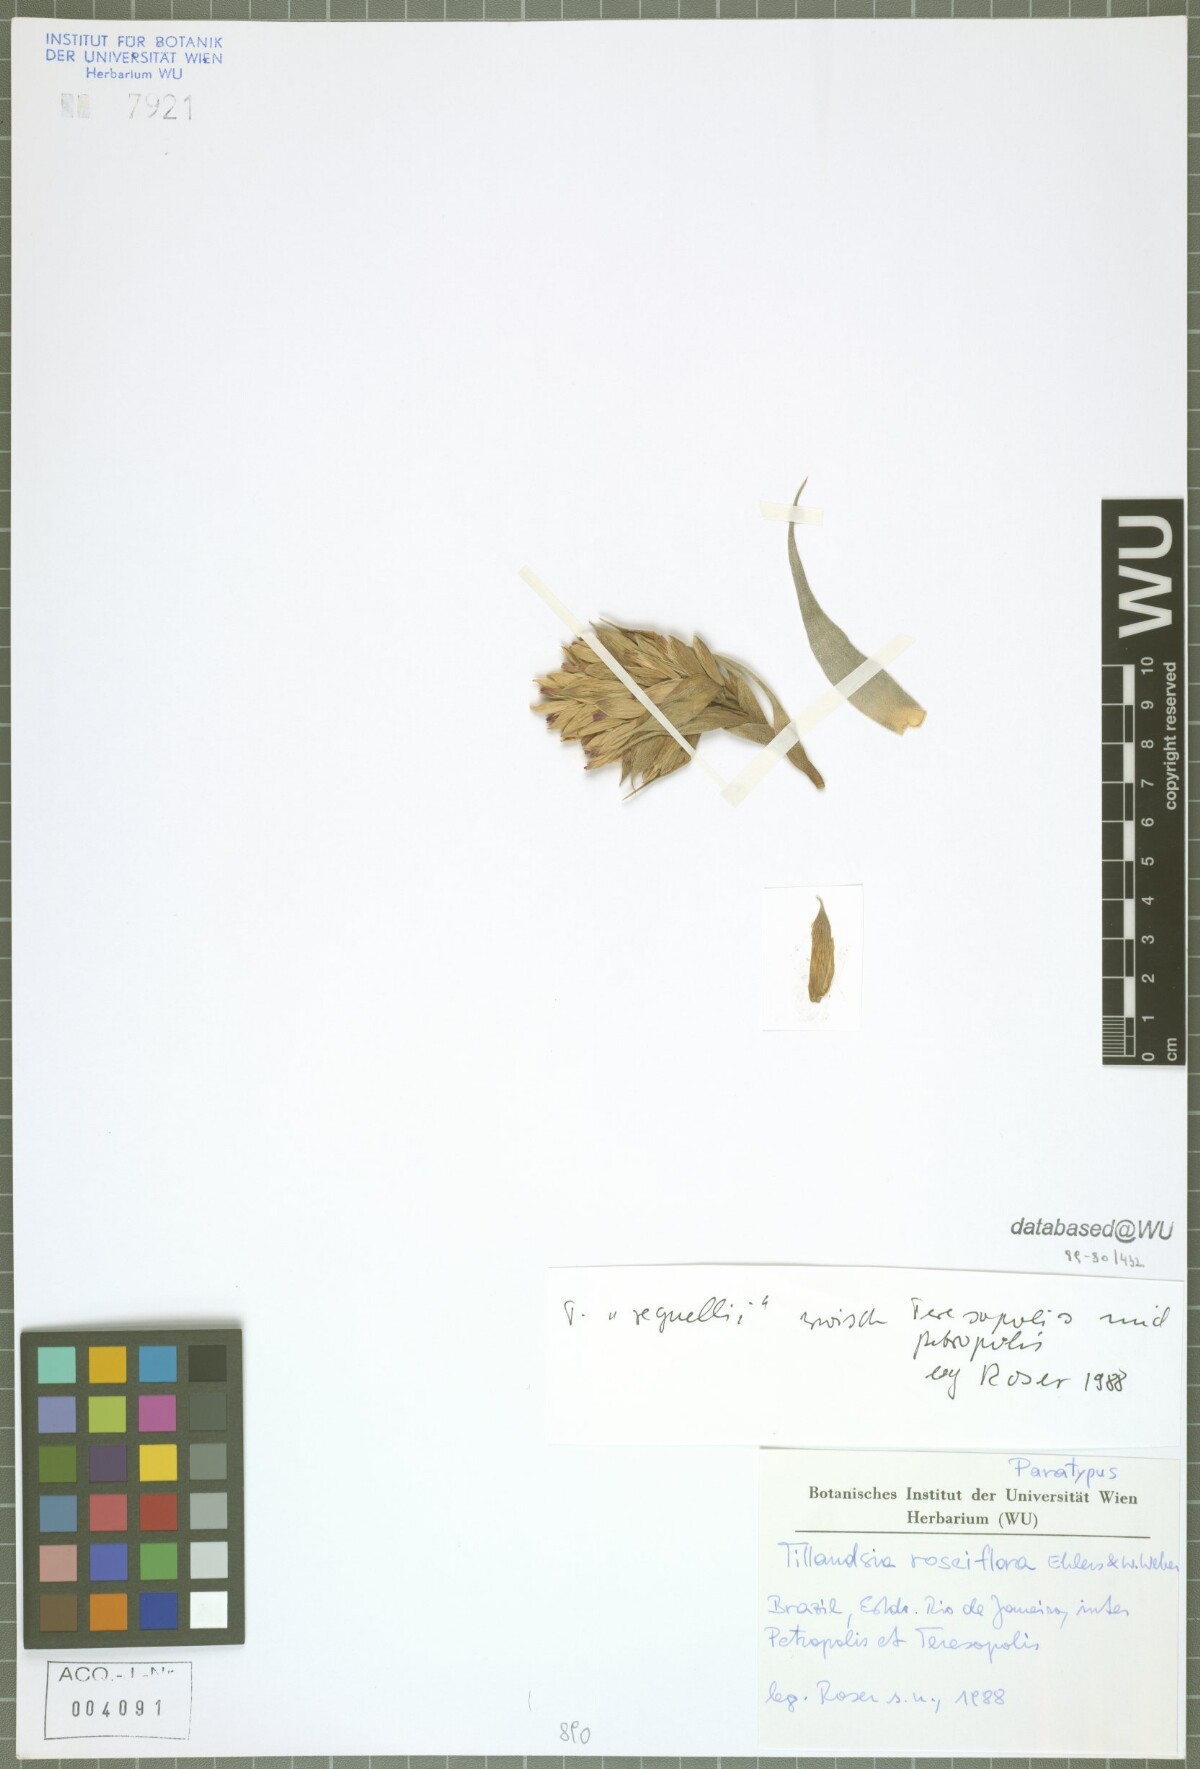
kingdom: Plantae
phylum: Tracheophyta
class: Liliopsida
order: Poales
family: Bromeliaceae
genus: Tillandsia
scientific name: Tillandsia roseiflora
